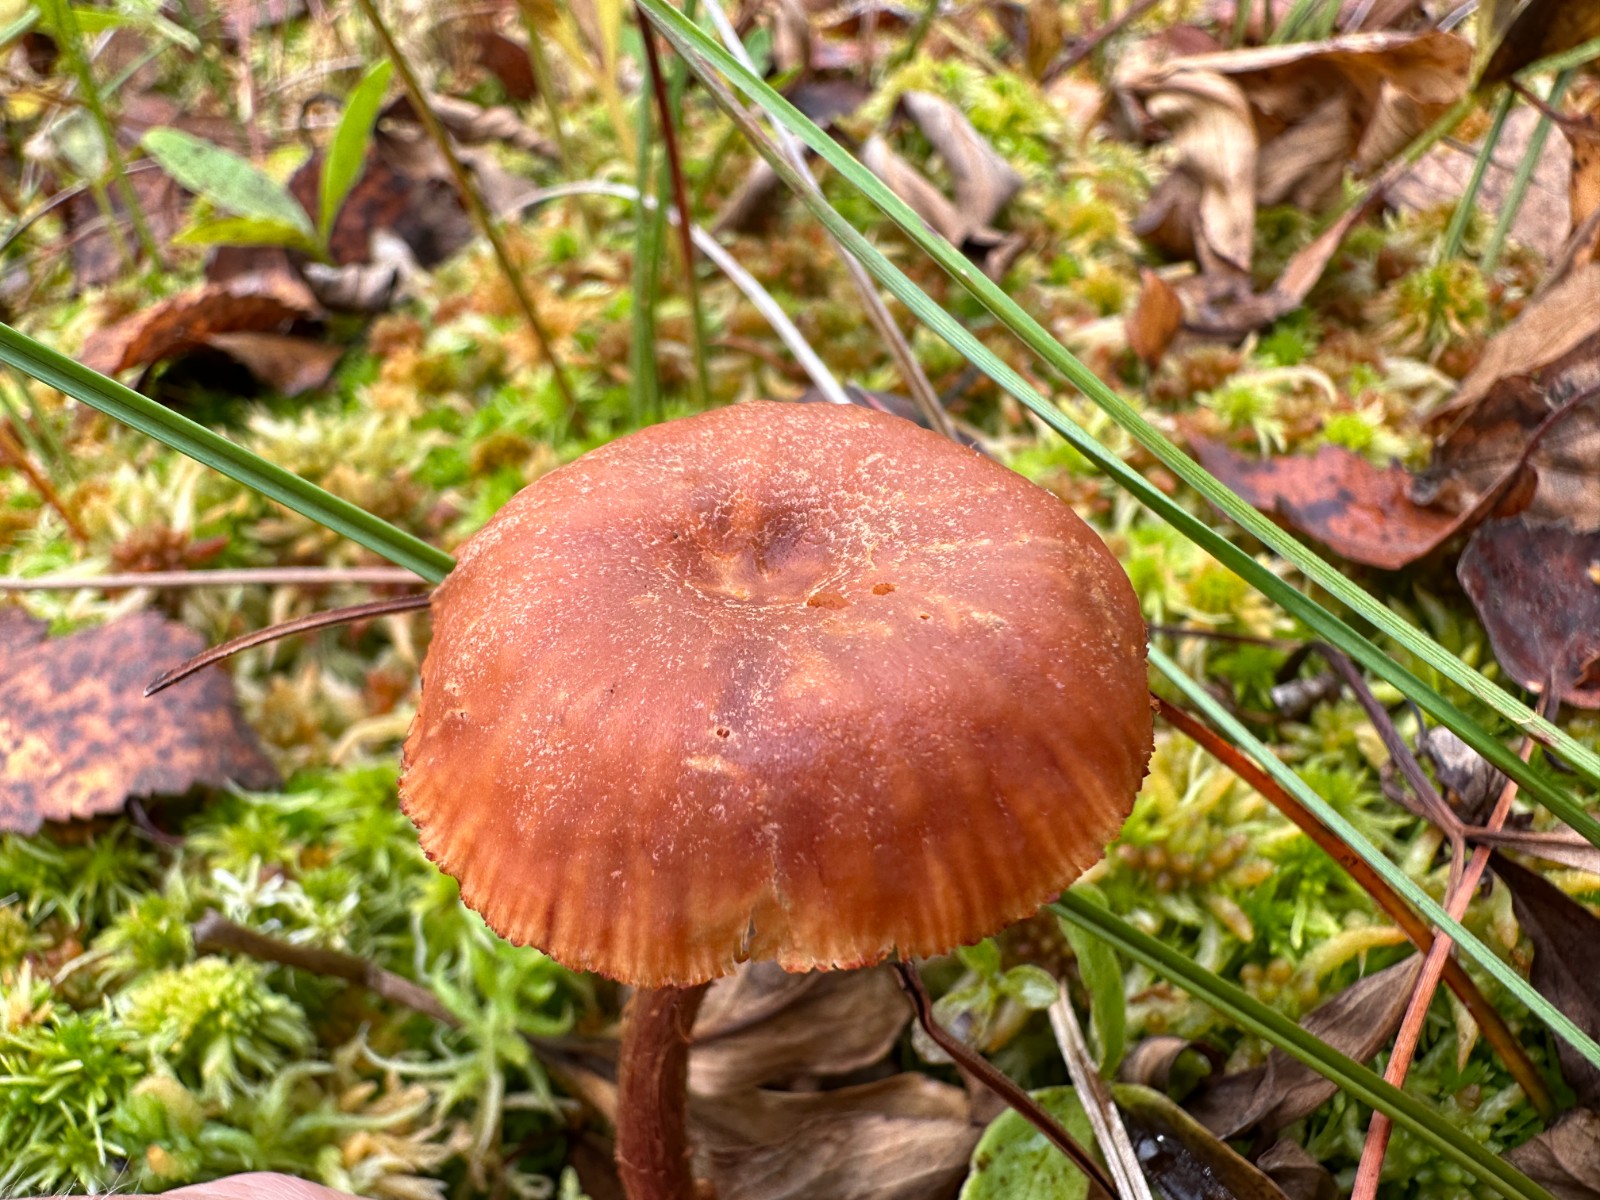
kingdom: Fungi
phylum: Basidiomycota
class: Agaricomycetes
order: Agaricales
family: Hydnangiaceae
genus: Laccaria
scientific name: Laccaria proxima
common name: stor ametysthat
